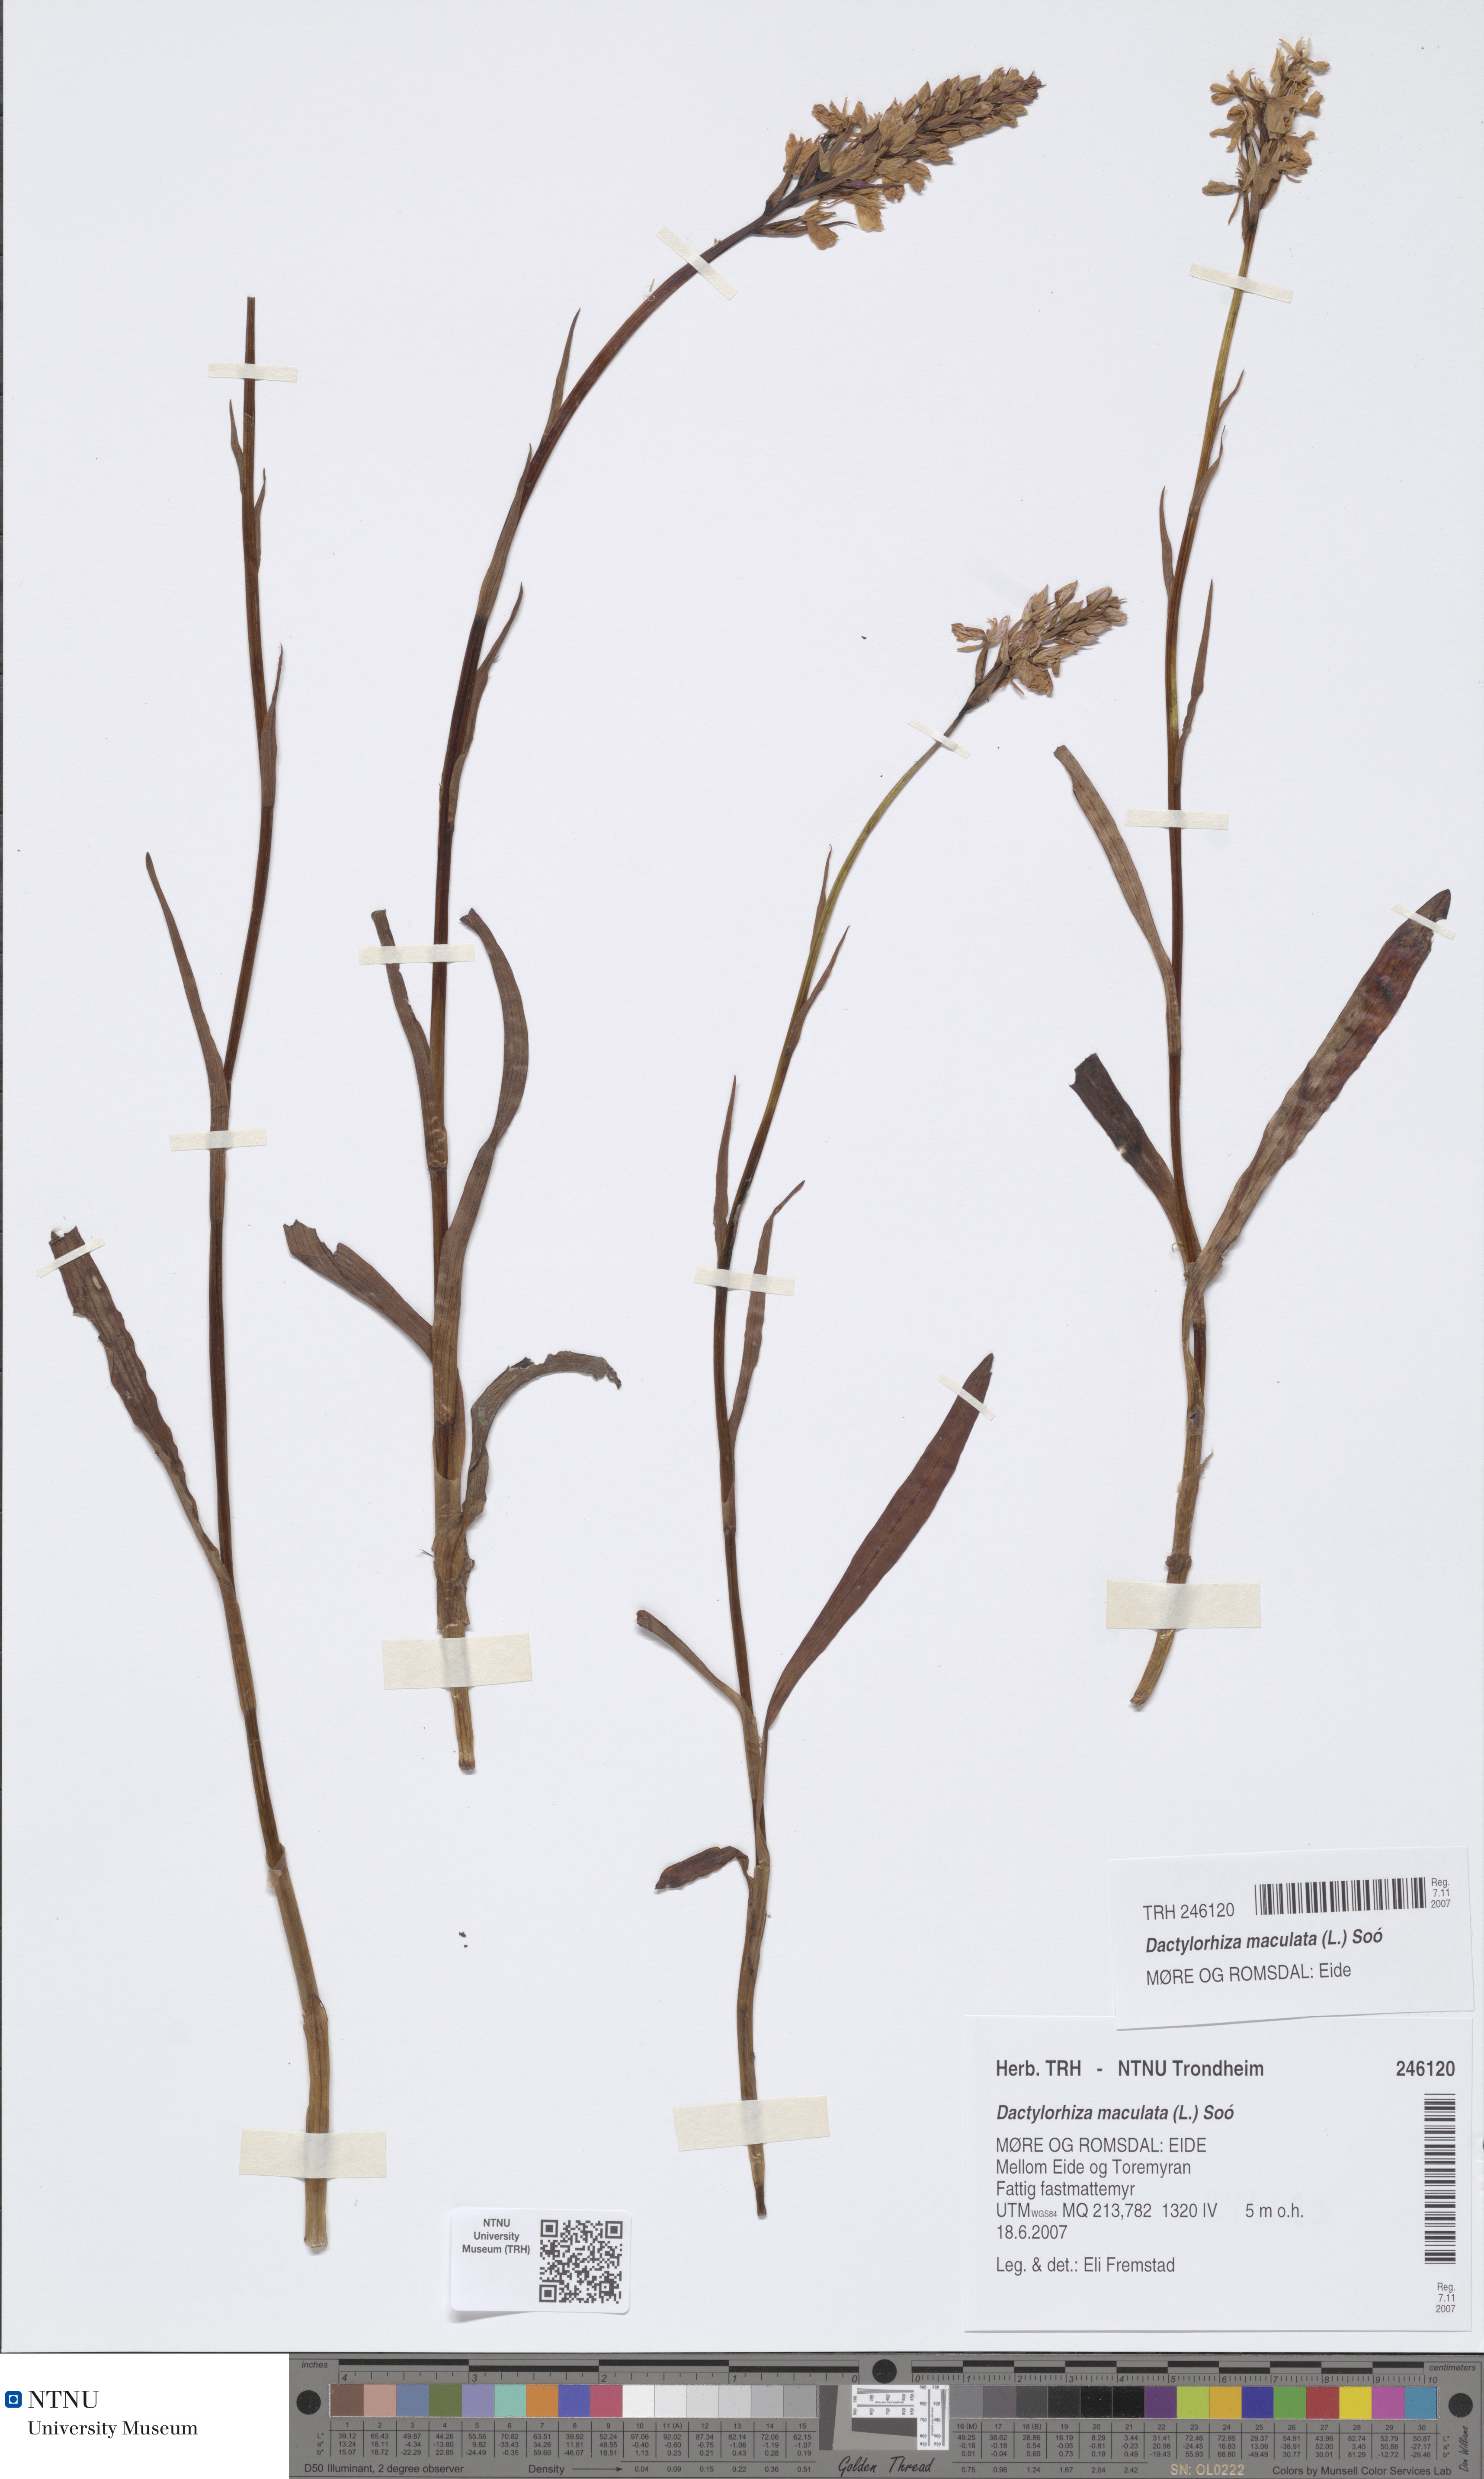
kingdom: Plantae
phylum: Tracheophyta
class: Liliopsida
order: Asparagales
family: Orchidaceae
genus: Dactylorhiza
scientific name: Dactylorhiza maculata
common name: Heath spotted-orchid
